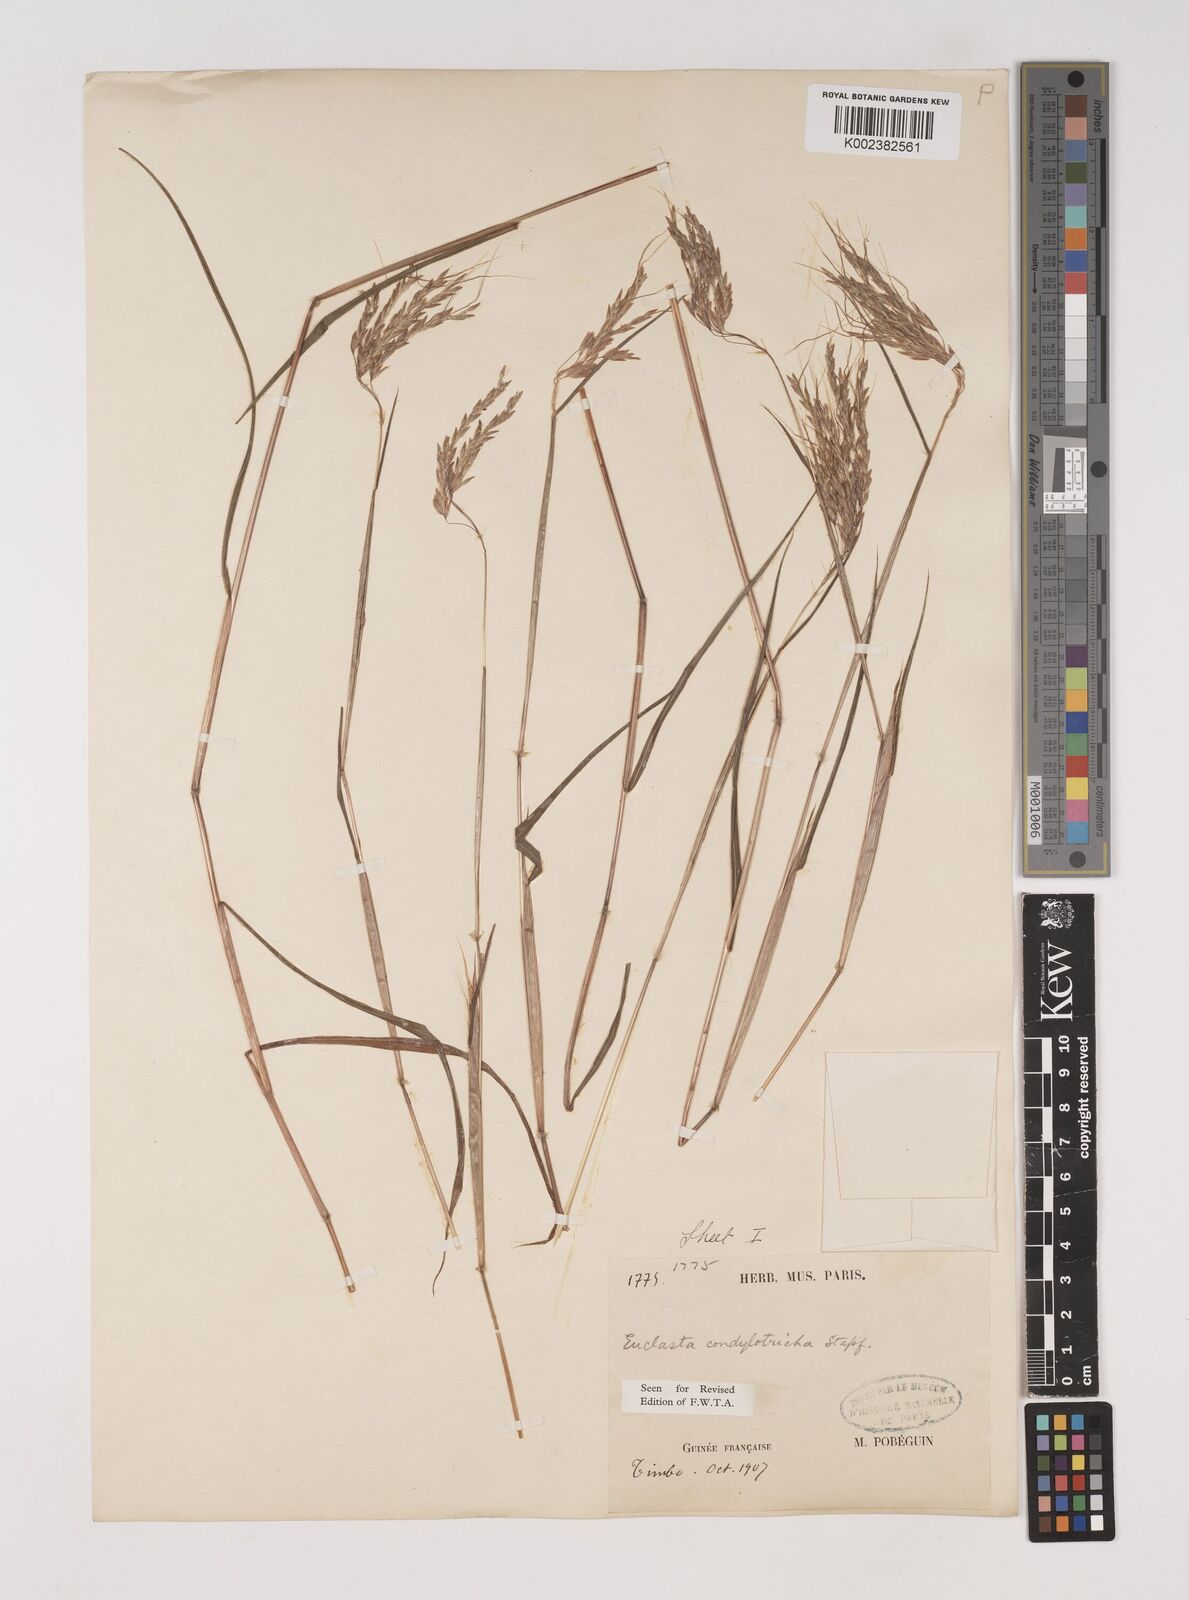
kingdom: Plantae
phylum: Tracheophyta
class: Liliopsida
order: Poales
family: Poaceae
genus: Euclasta
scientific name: Euclasta condylotricha
